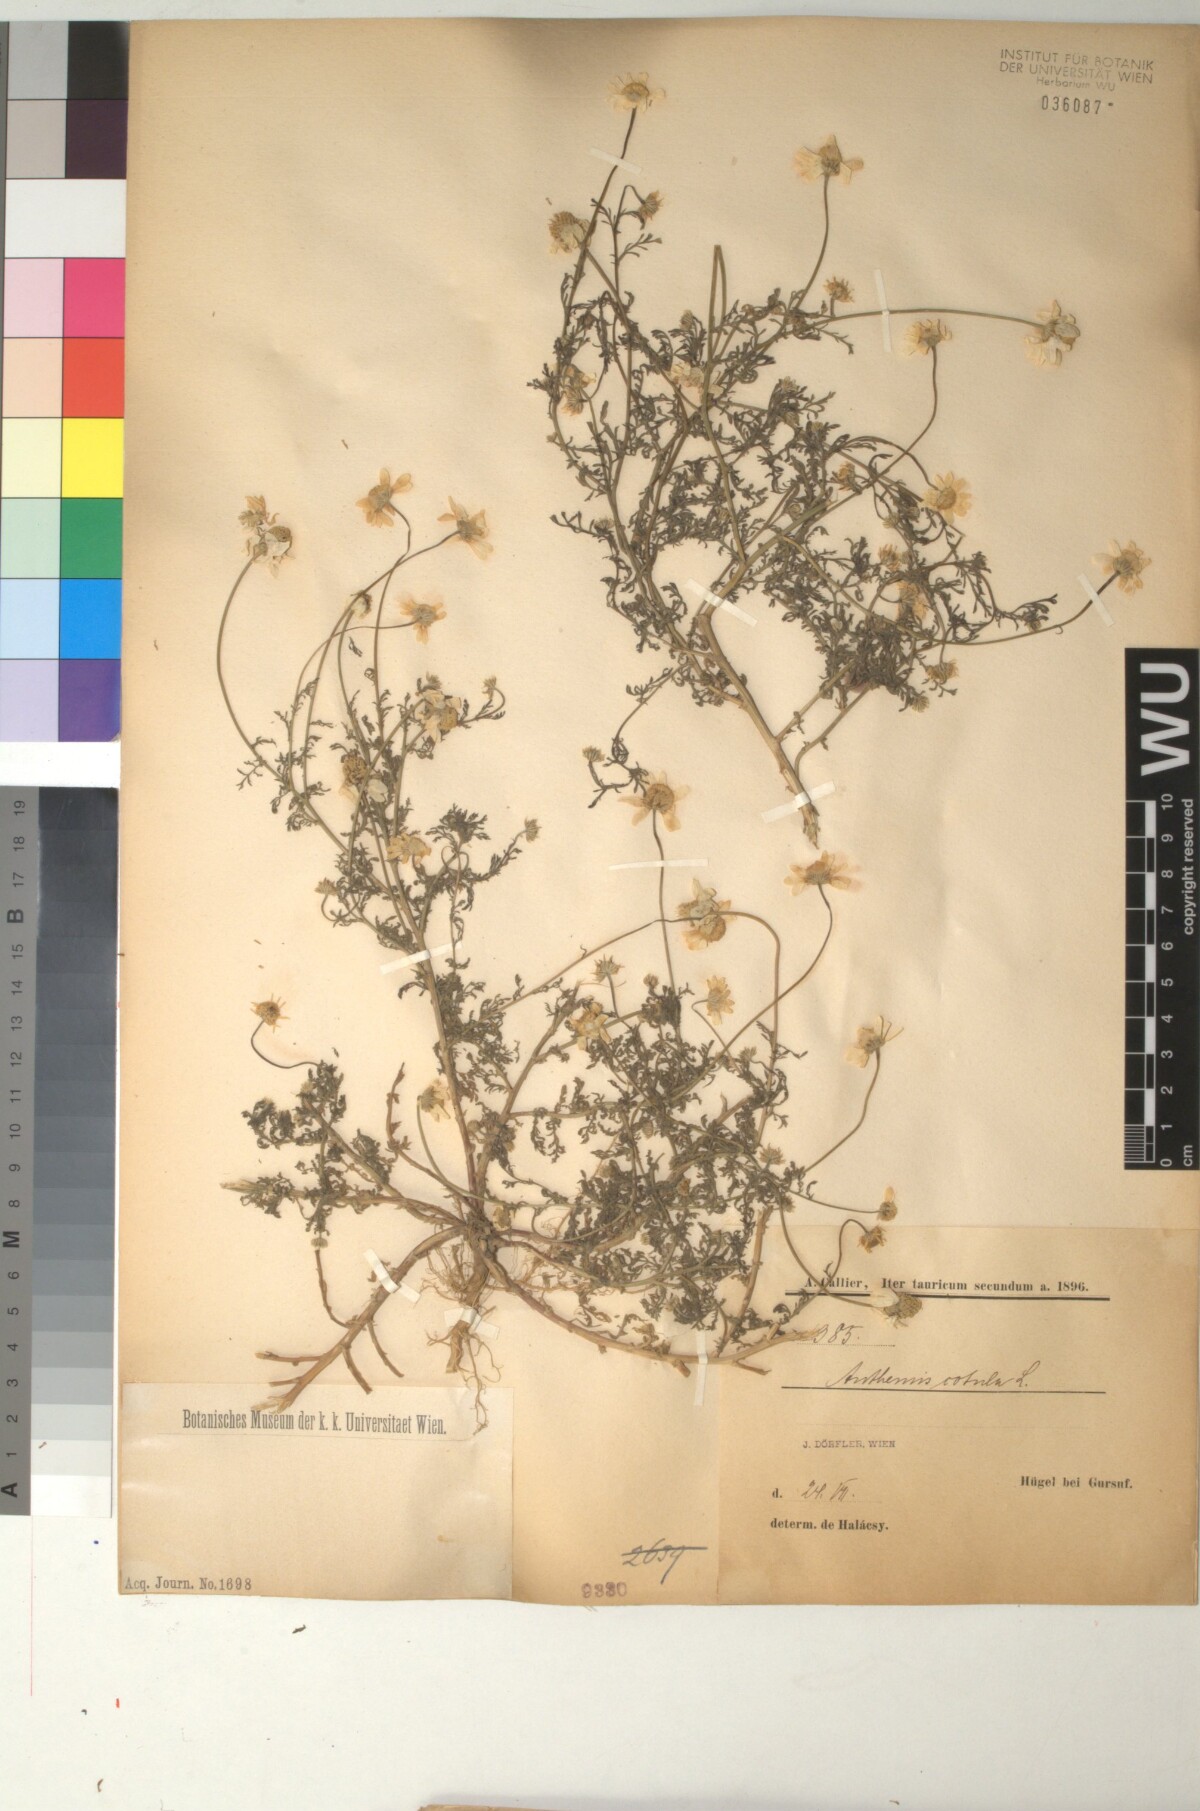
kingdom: Plantae
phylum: Tracheophyta
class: Magnoliopsida
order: Asterales
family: Asteraceae
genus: Anthemis
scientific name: Anthemis cotula
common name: Stinking chamomile
